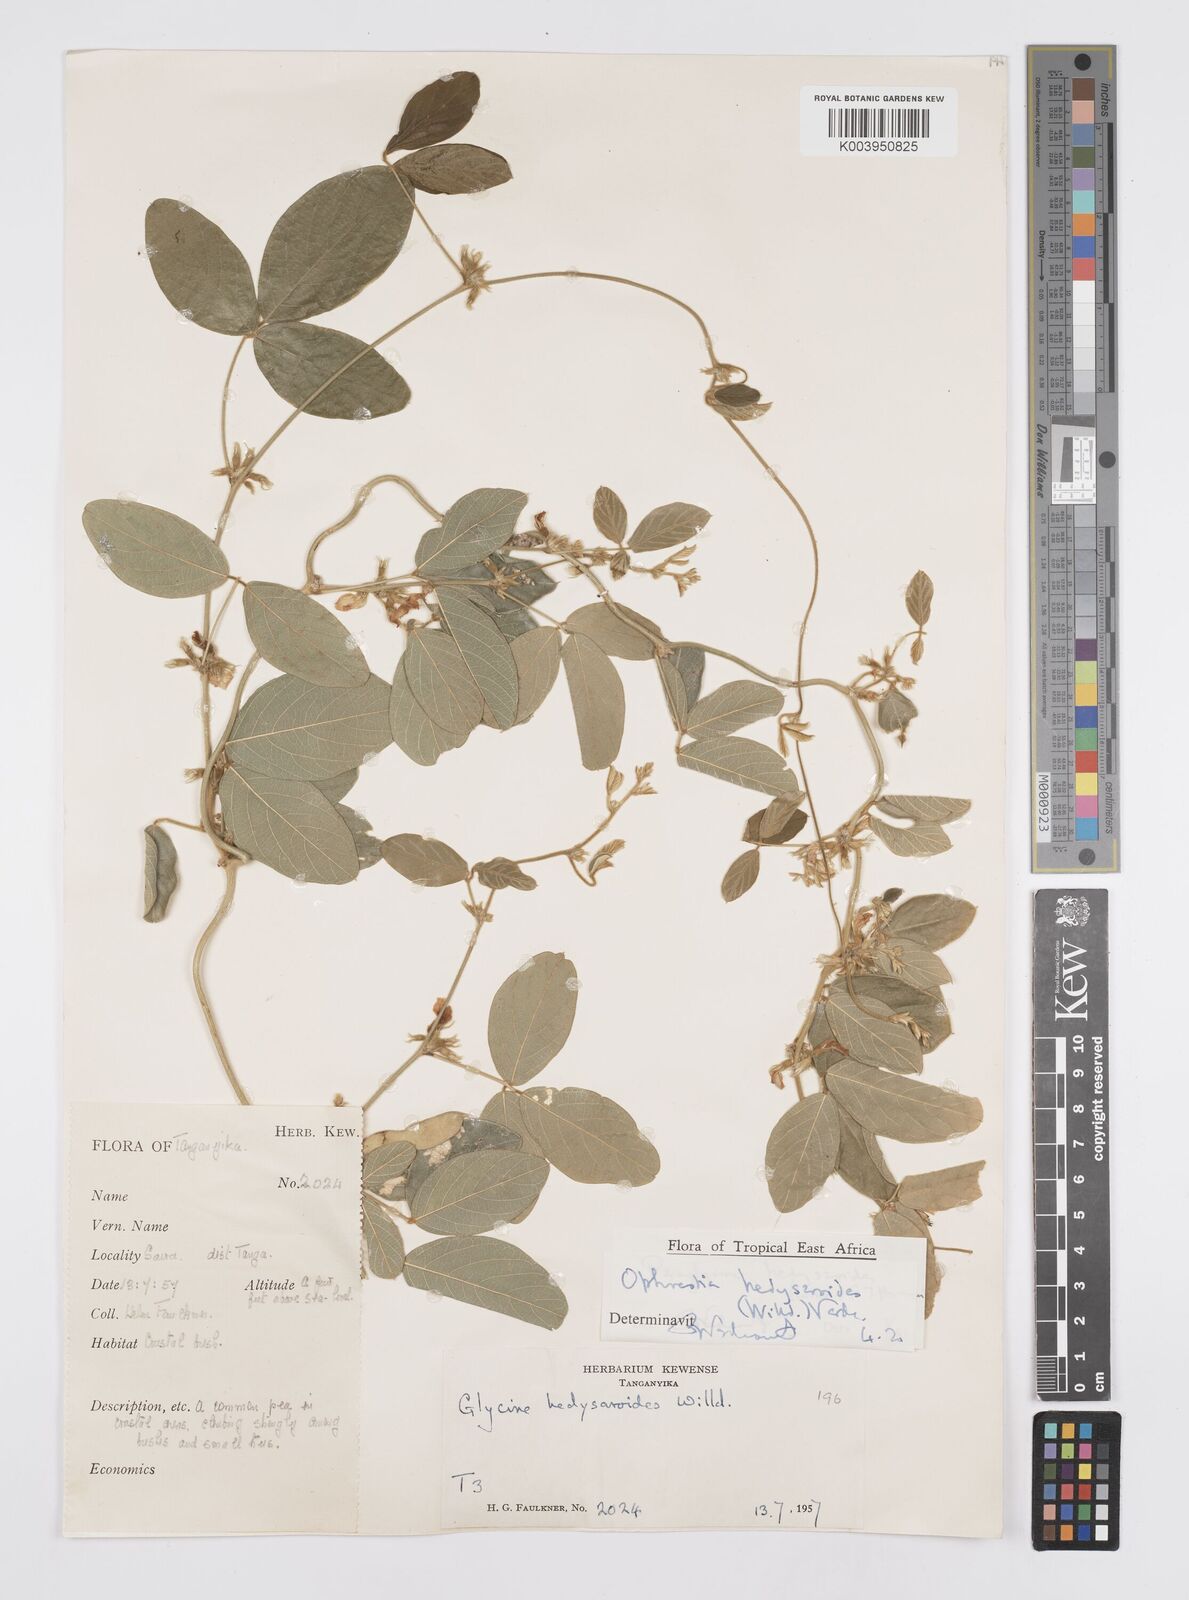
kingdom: Plantae
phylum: Tracheophyta
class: Magnoliopsida
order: Fabales
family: Fabaceae
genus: Ophrestia
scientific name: Ophrestia hedysaroides
